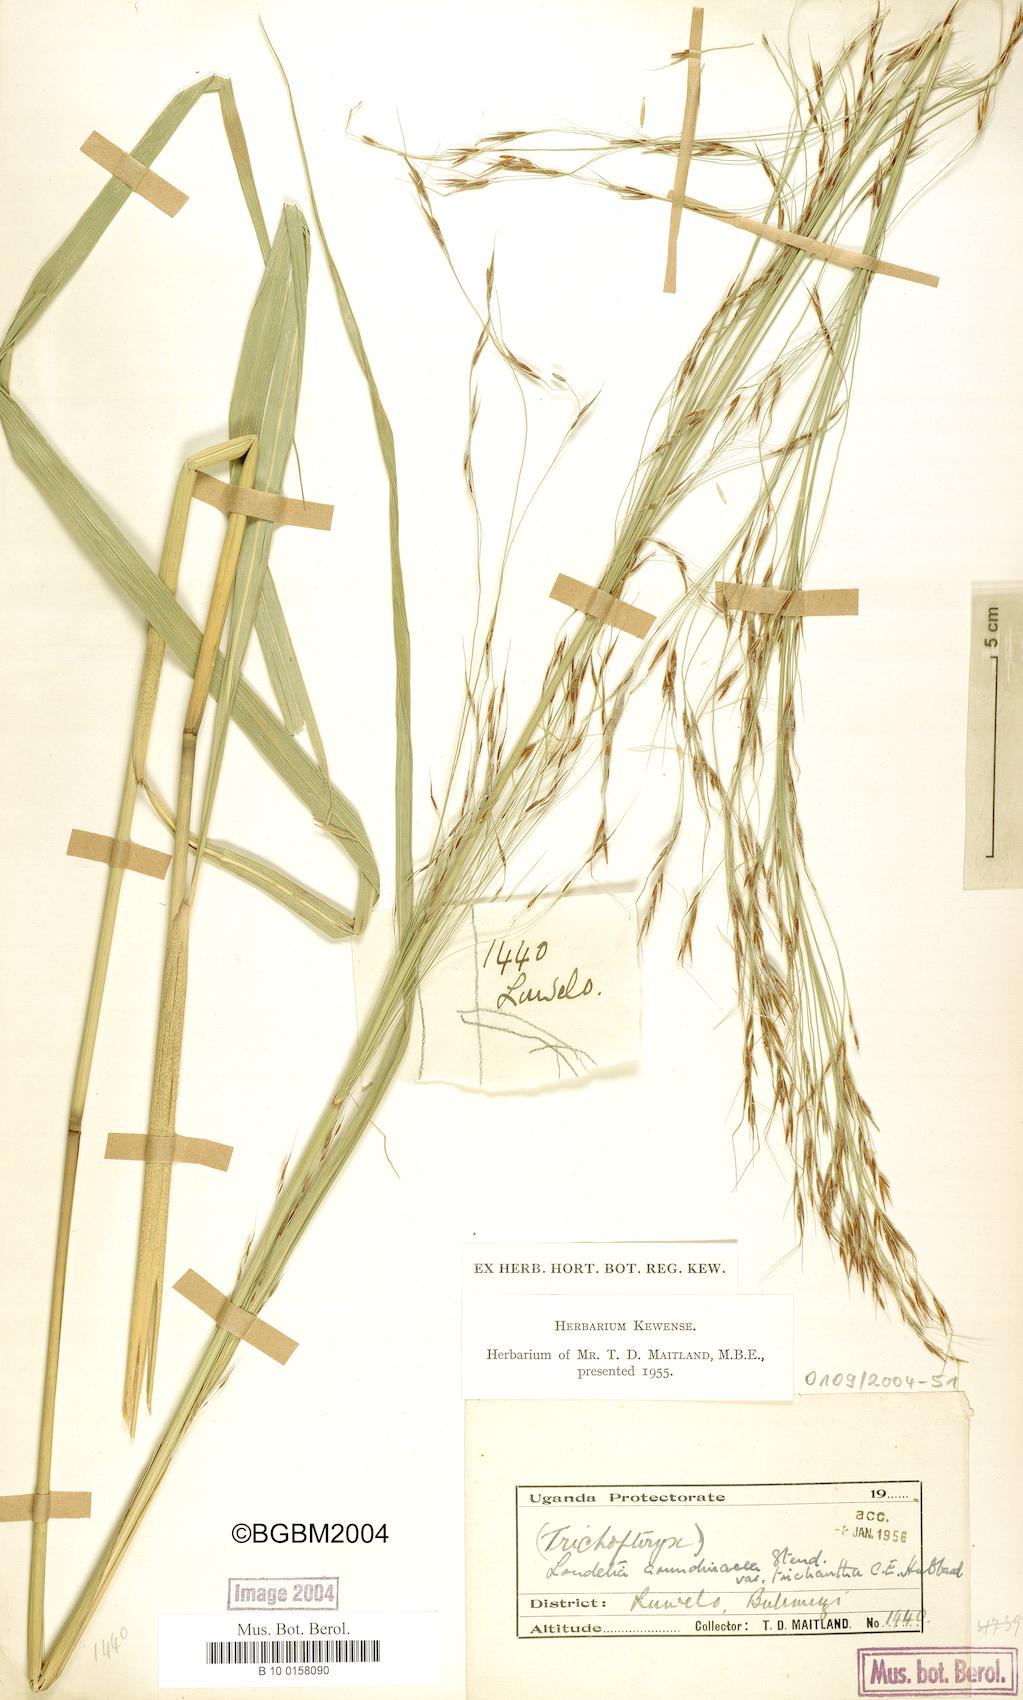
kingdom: Plantae
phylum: Tracheophyta
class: Liliopsida
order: Poales
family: Poaceae
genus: Loudetia
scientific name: Loudetia arundinacea
